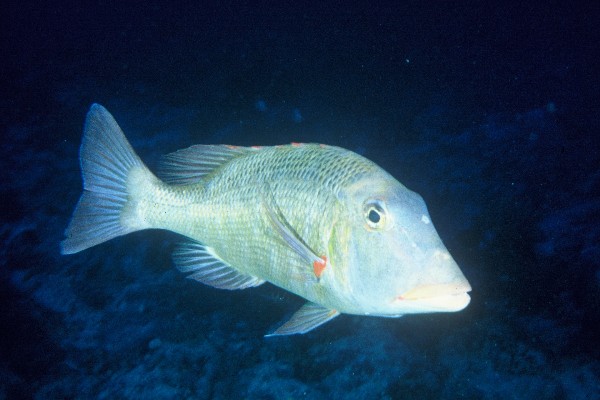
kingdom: Animalia
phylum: Chordata
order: Perciformes
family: Lethrinidae
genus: Lethrinus
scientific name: Lethrinus miniatus
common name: Trumpet emperor
